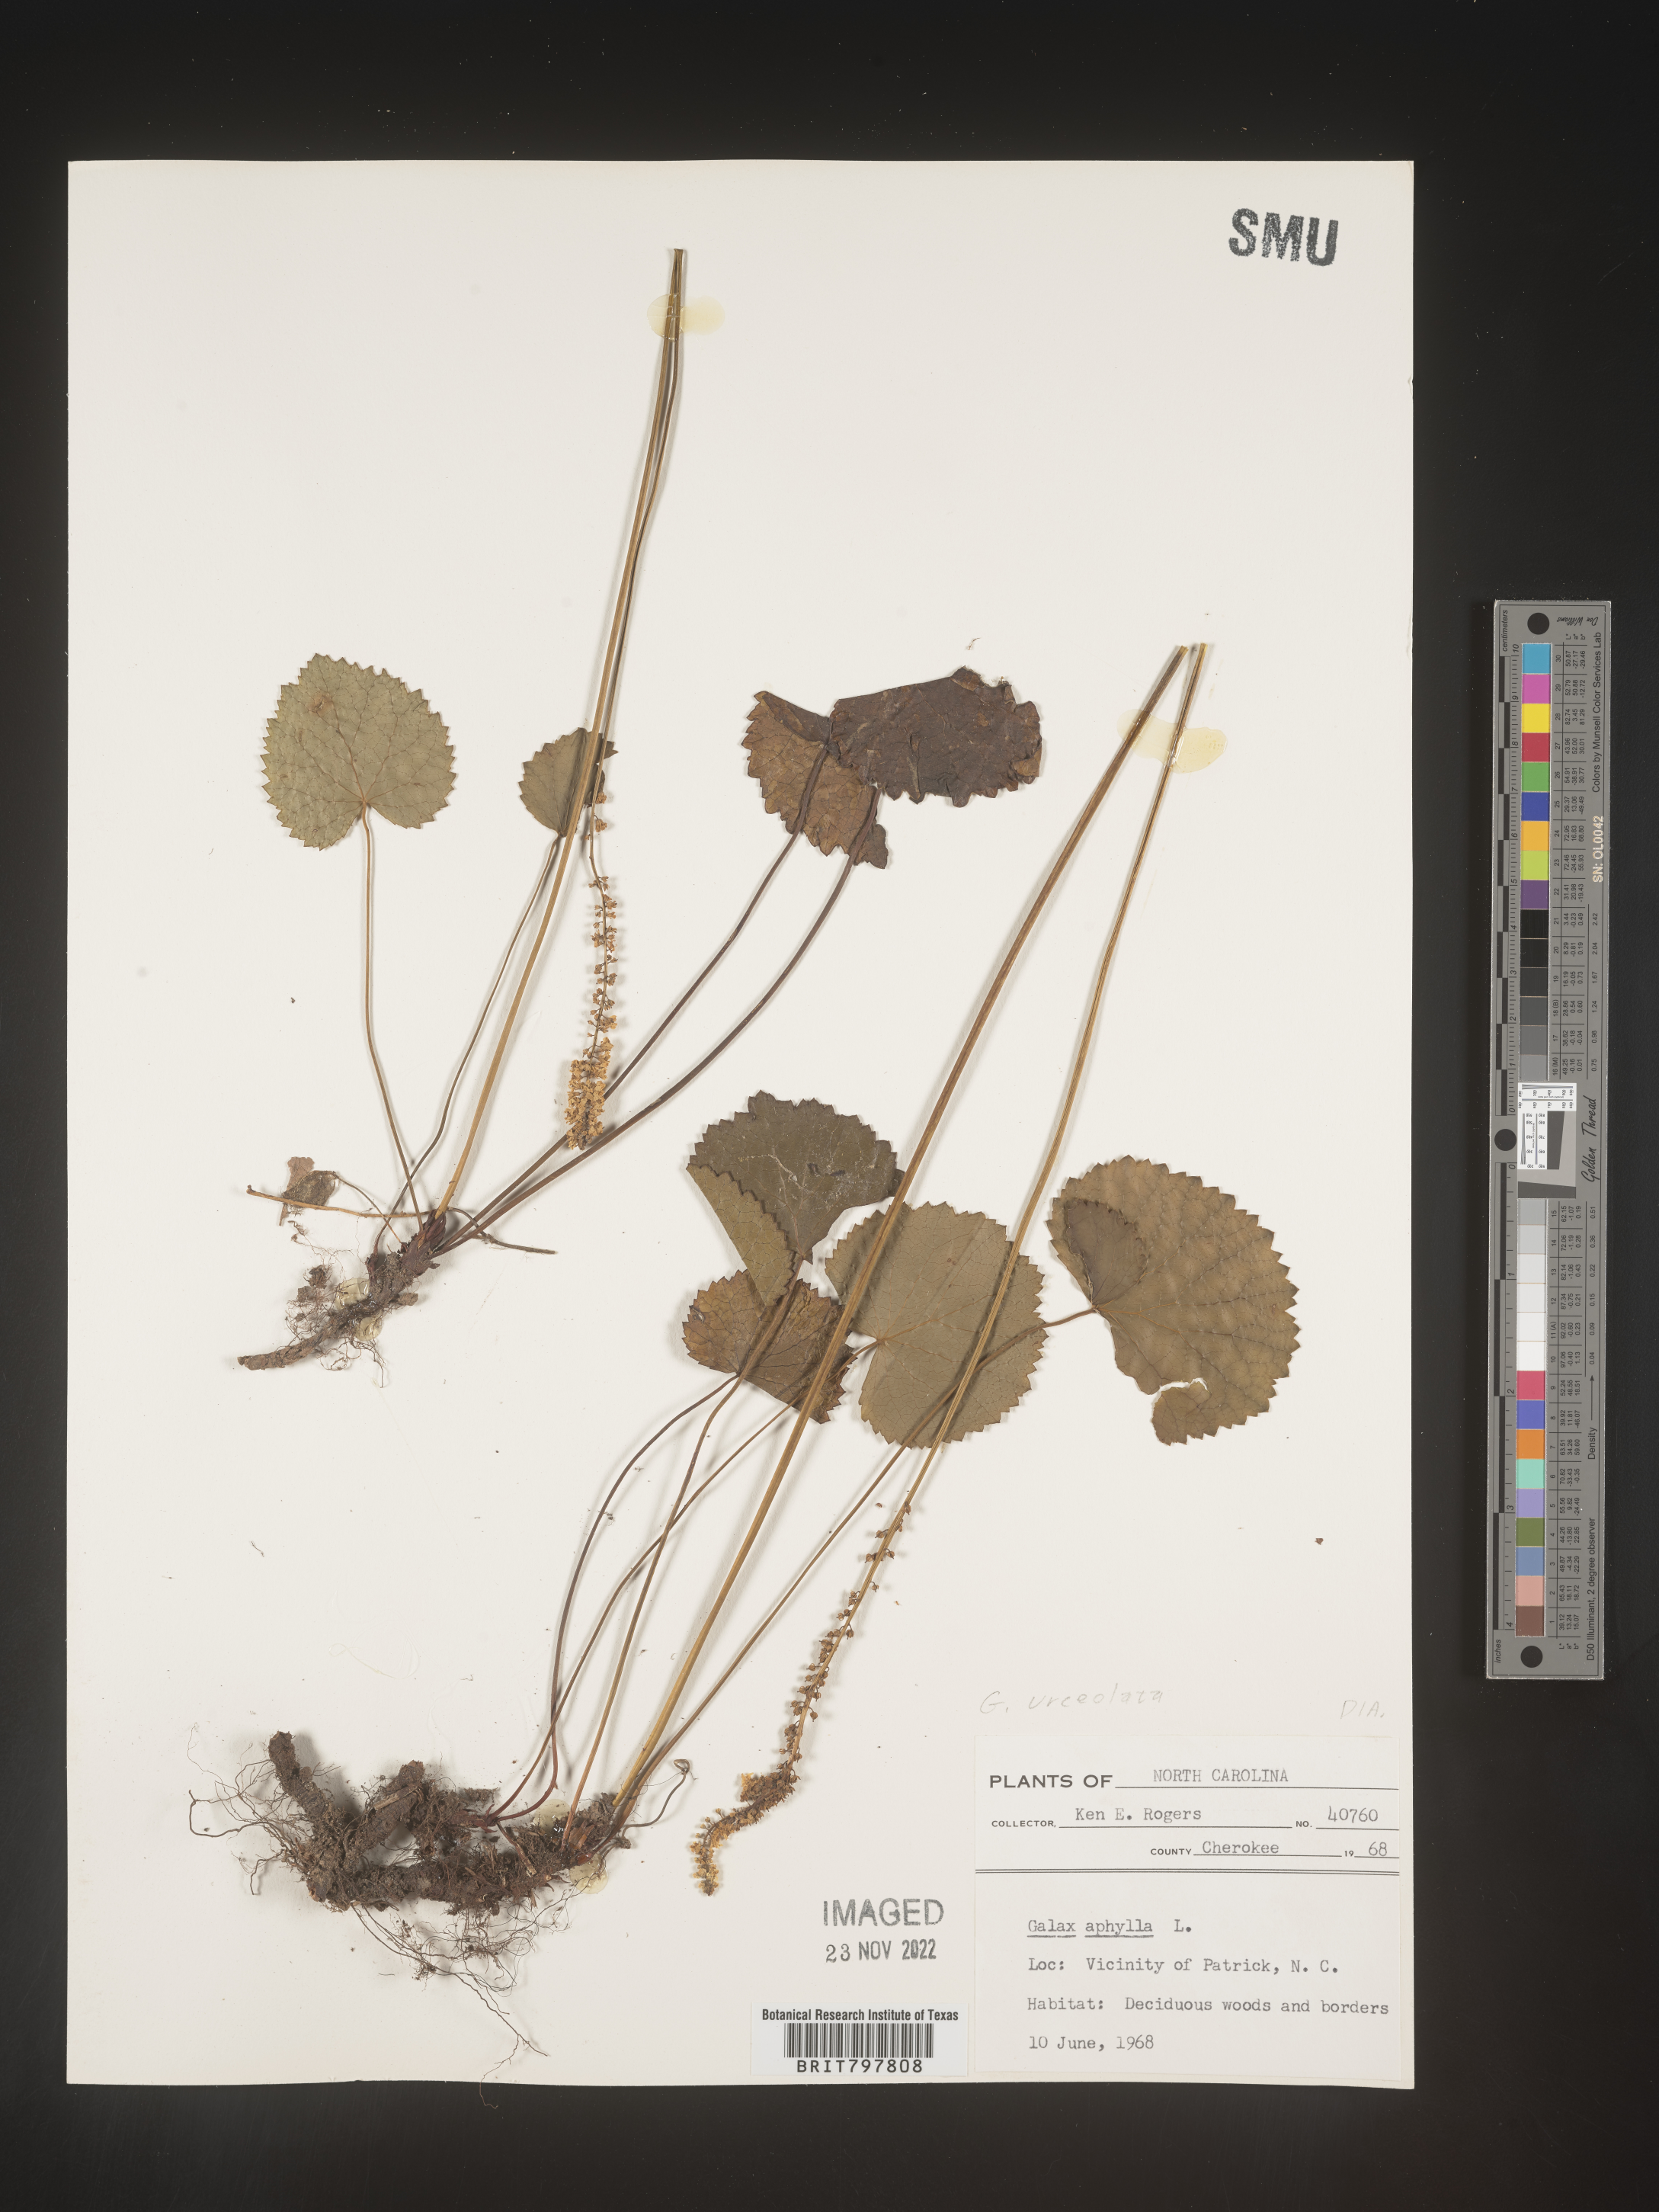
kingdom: Plantae
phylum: Tracheophyta
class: Magnoliopsida
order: Ericales
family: Diapensiaceae
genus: Galax
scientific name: Galax
